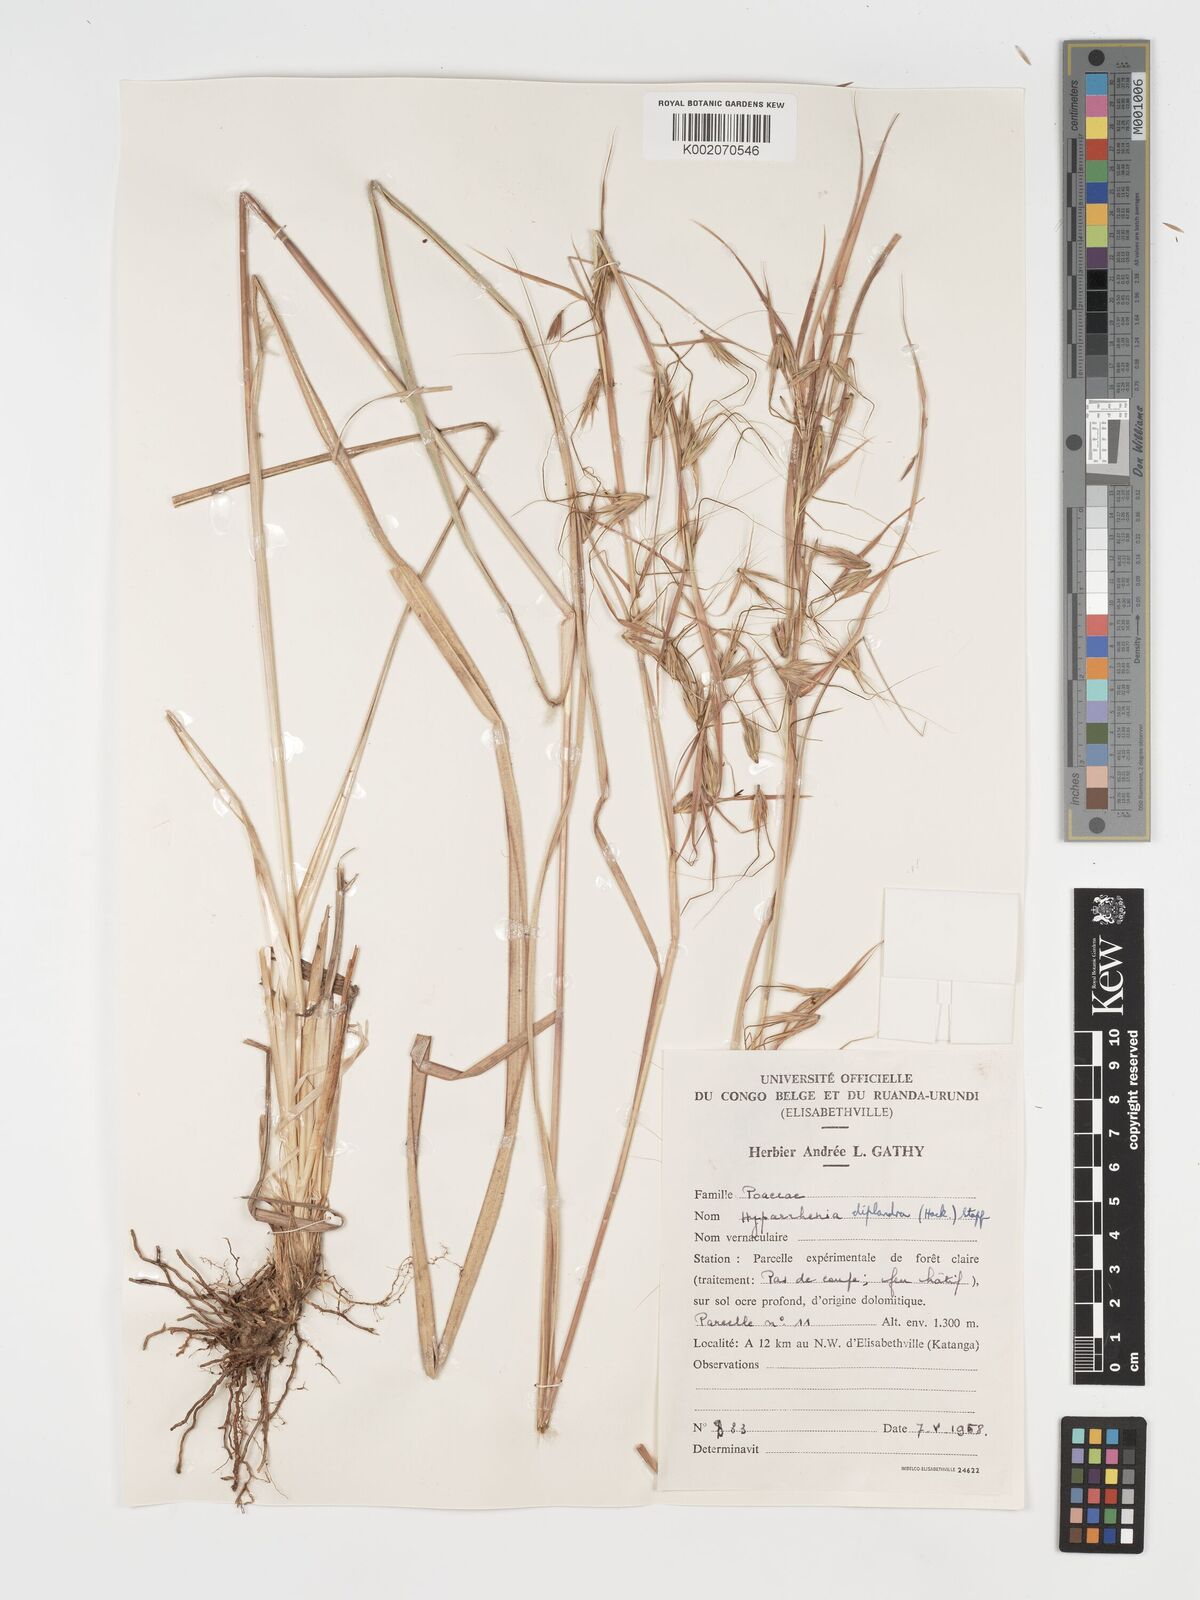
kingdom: Plantae
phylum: Tracheophyta
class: Liliopsida
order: Poales
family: Poaceae
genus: Hyparrhenia
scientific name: Hyparrhenia diplandra
